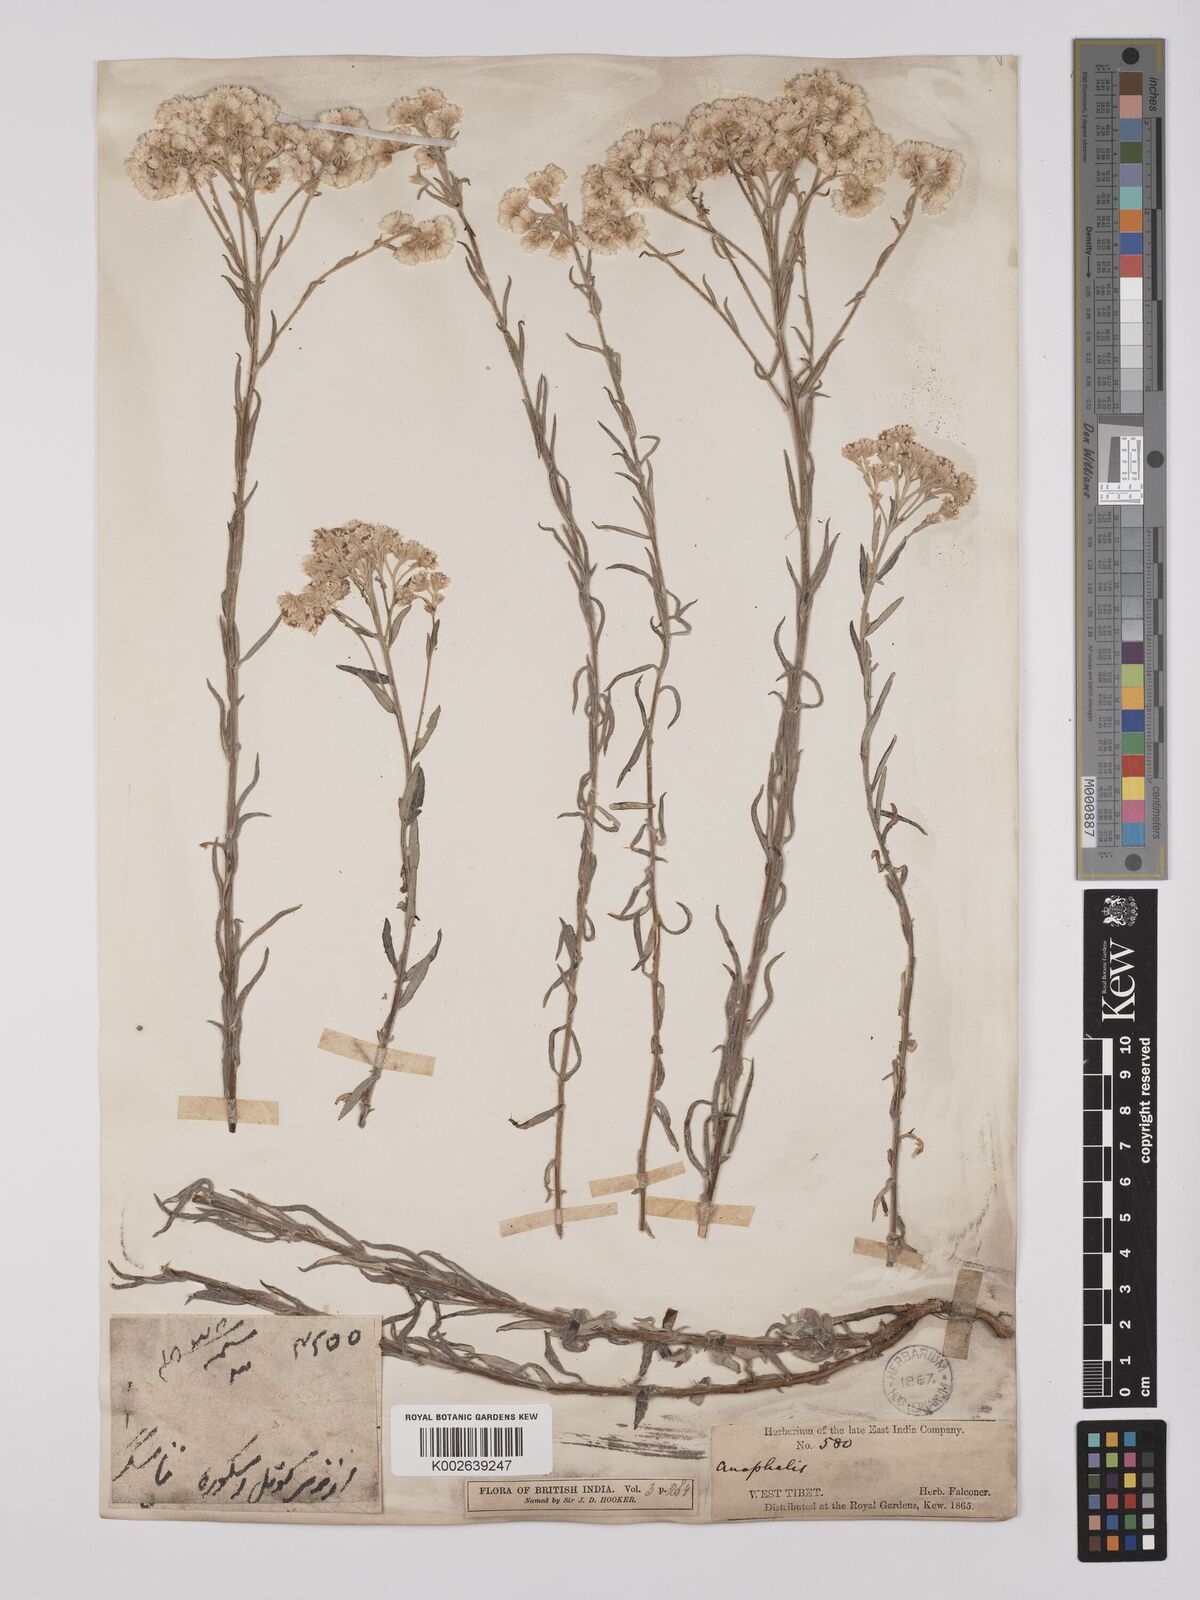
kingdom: Plantae
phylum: Tracheophyta
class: Magnoliopsida
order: Asterales
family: Asteraceae
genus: Anaphalis
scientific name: Anaphalis virgata
